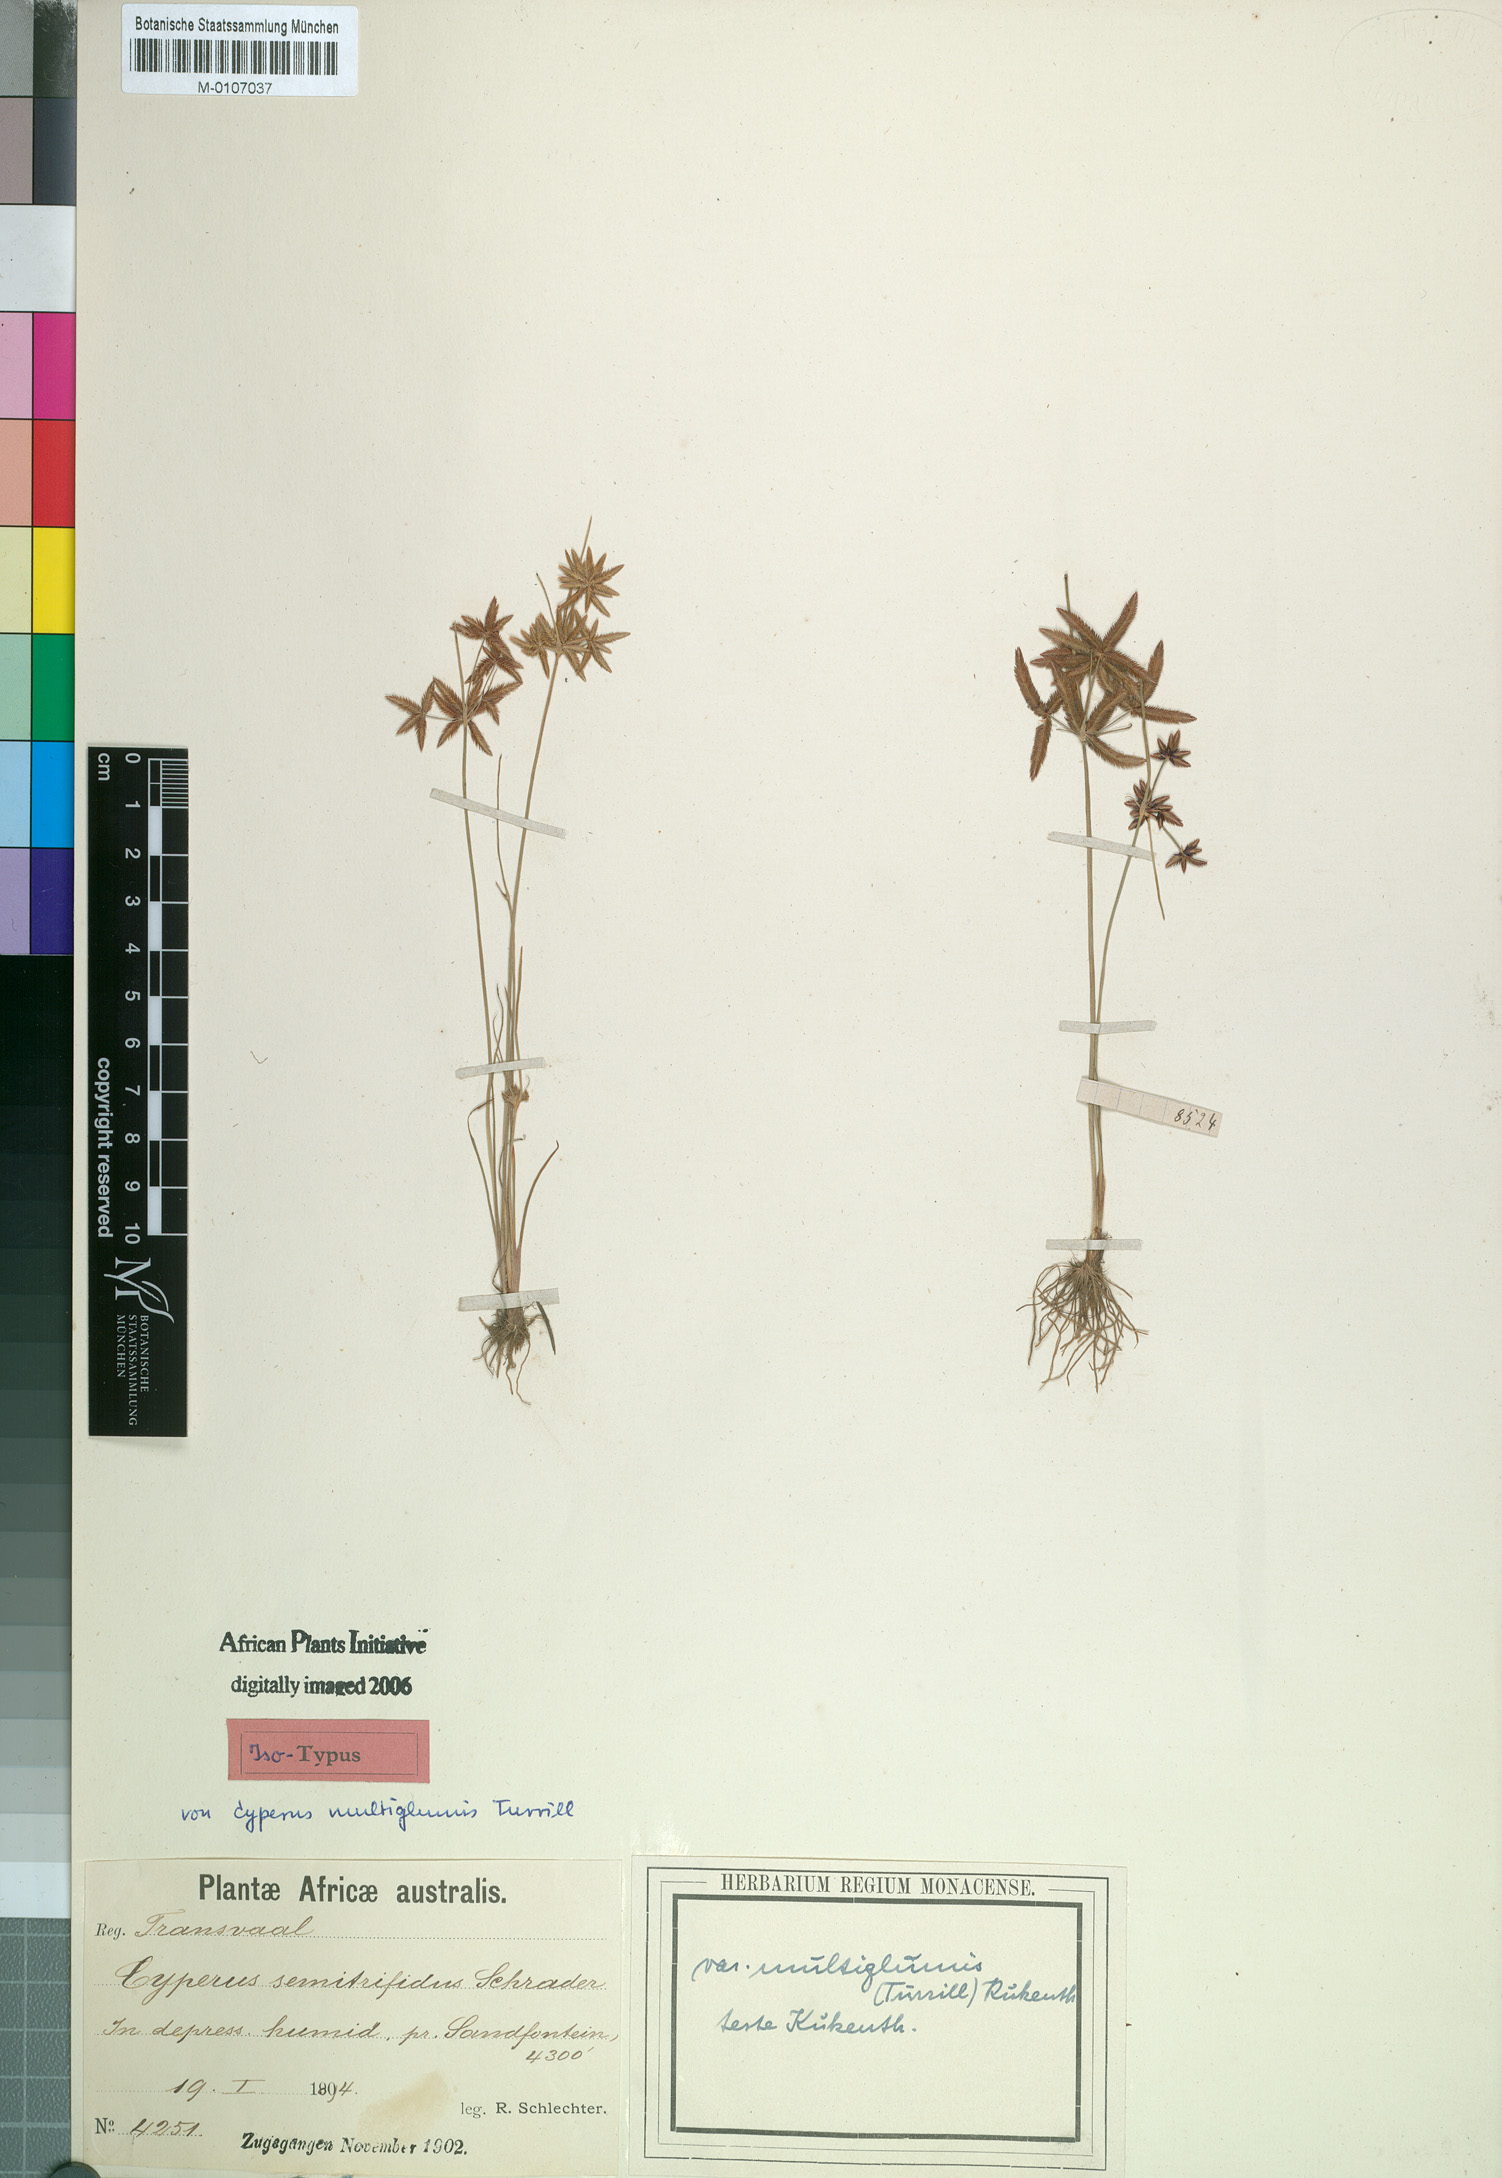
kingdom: Plantae
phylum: Tracheophyta
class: Liliopsida
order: Poales
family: Cyperaceae
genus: Cyperus
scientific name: Cyperus semitrifidus
